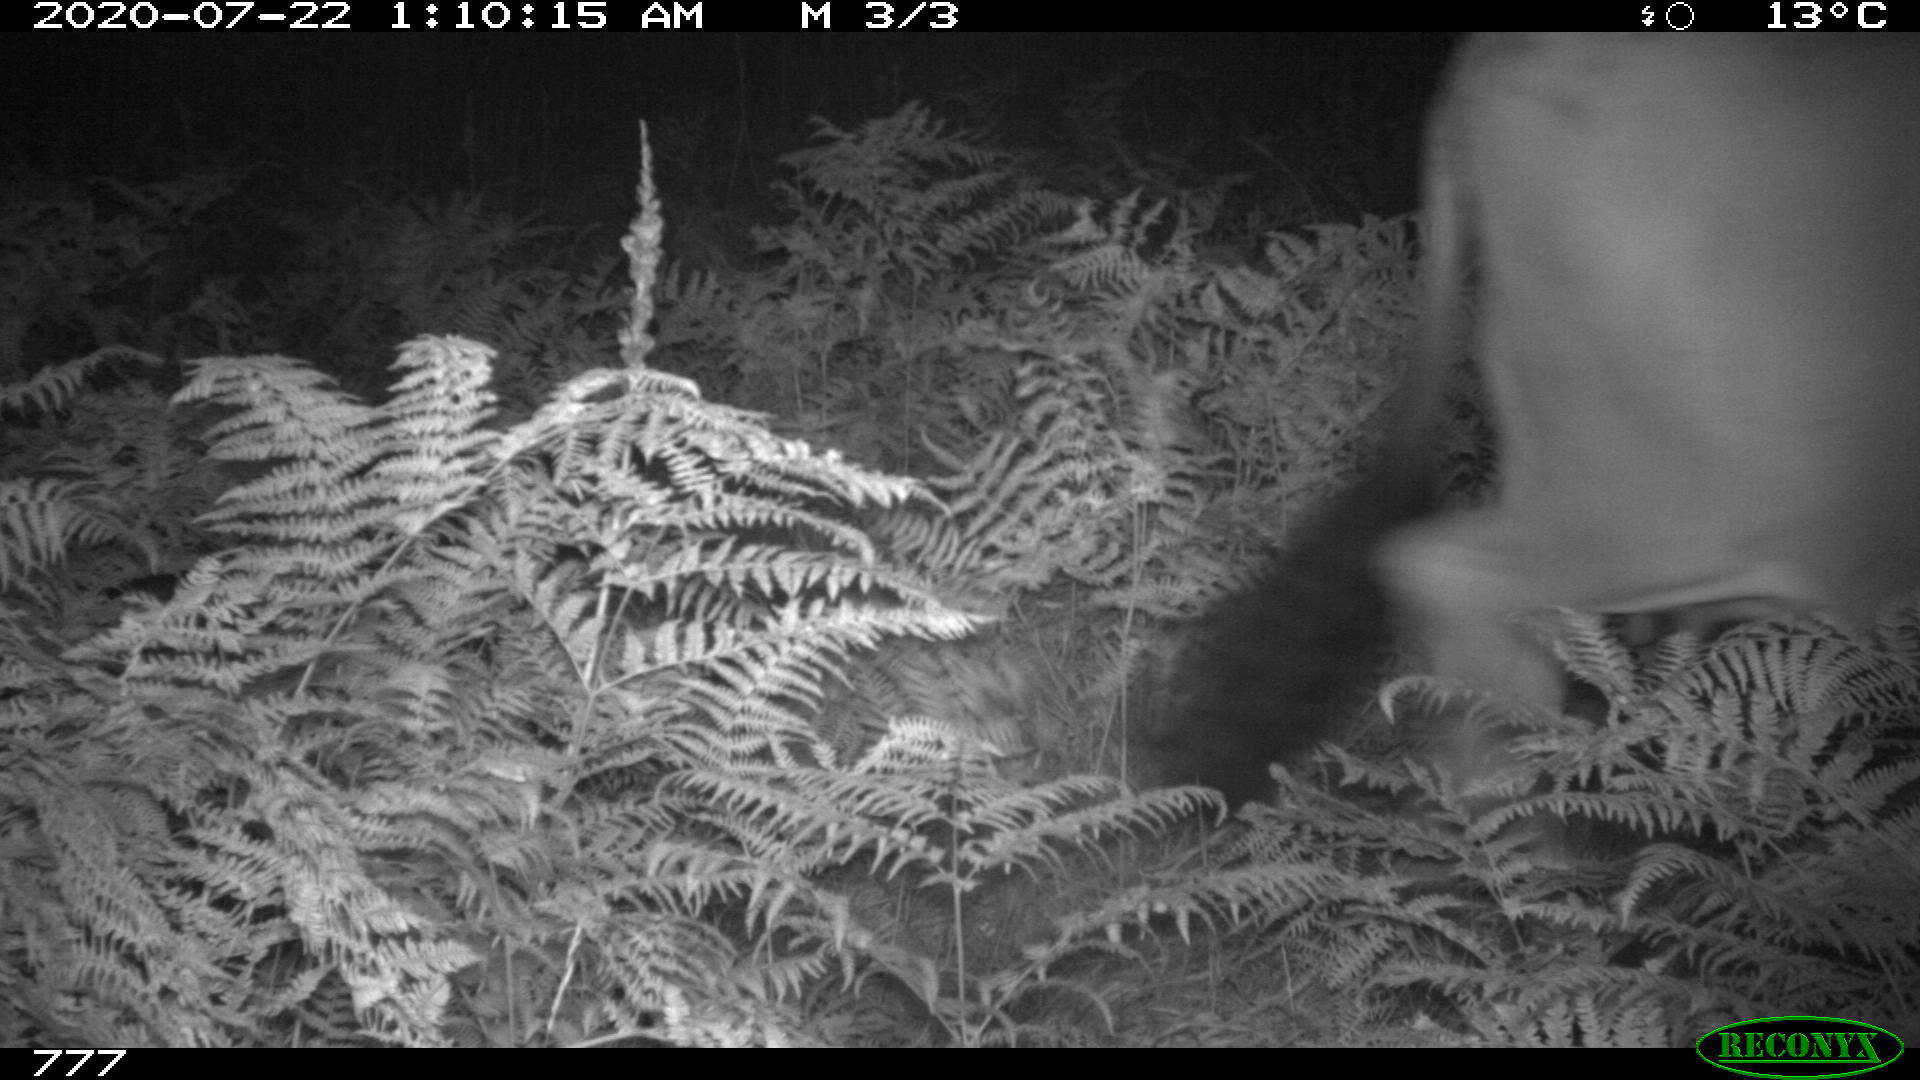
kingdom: Animalia
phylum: Chordata
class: Mammalia
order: Artiodactyla
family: Bovidae
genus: Bos
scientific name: Bos taurus
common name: Domesticated cattle
